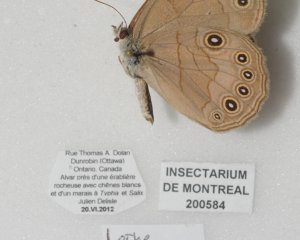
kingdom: Animalia
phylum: Arthropoda
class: Insecta
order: Lepidoptera
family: Nymphalidae
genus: Lethe
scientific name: Lethe eurydice
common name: Appalachian Eyed Brown
